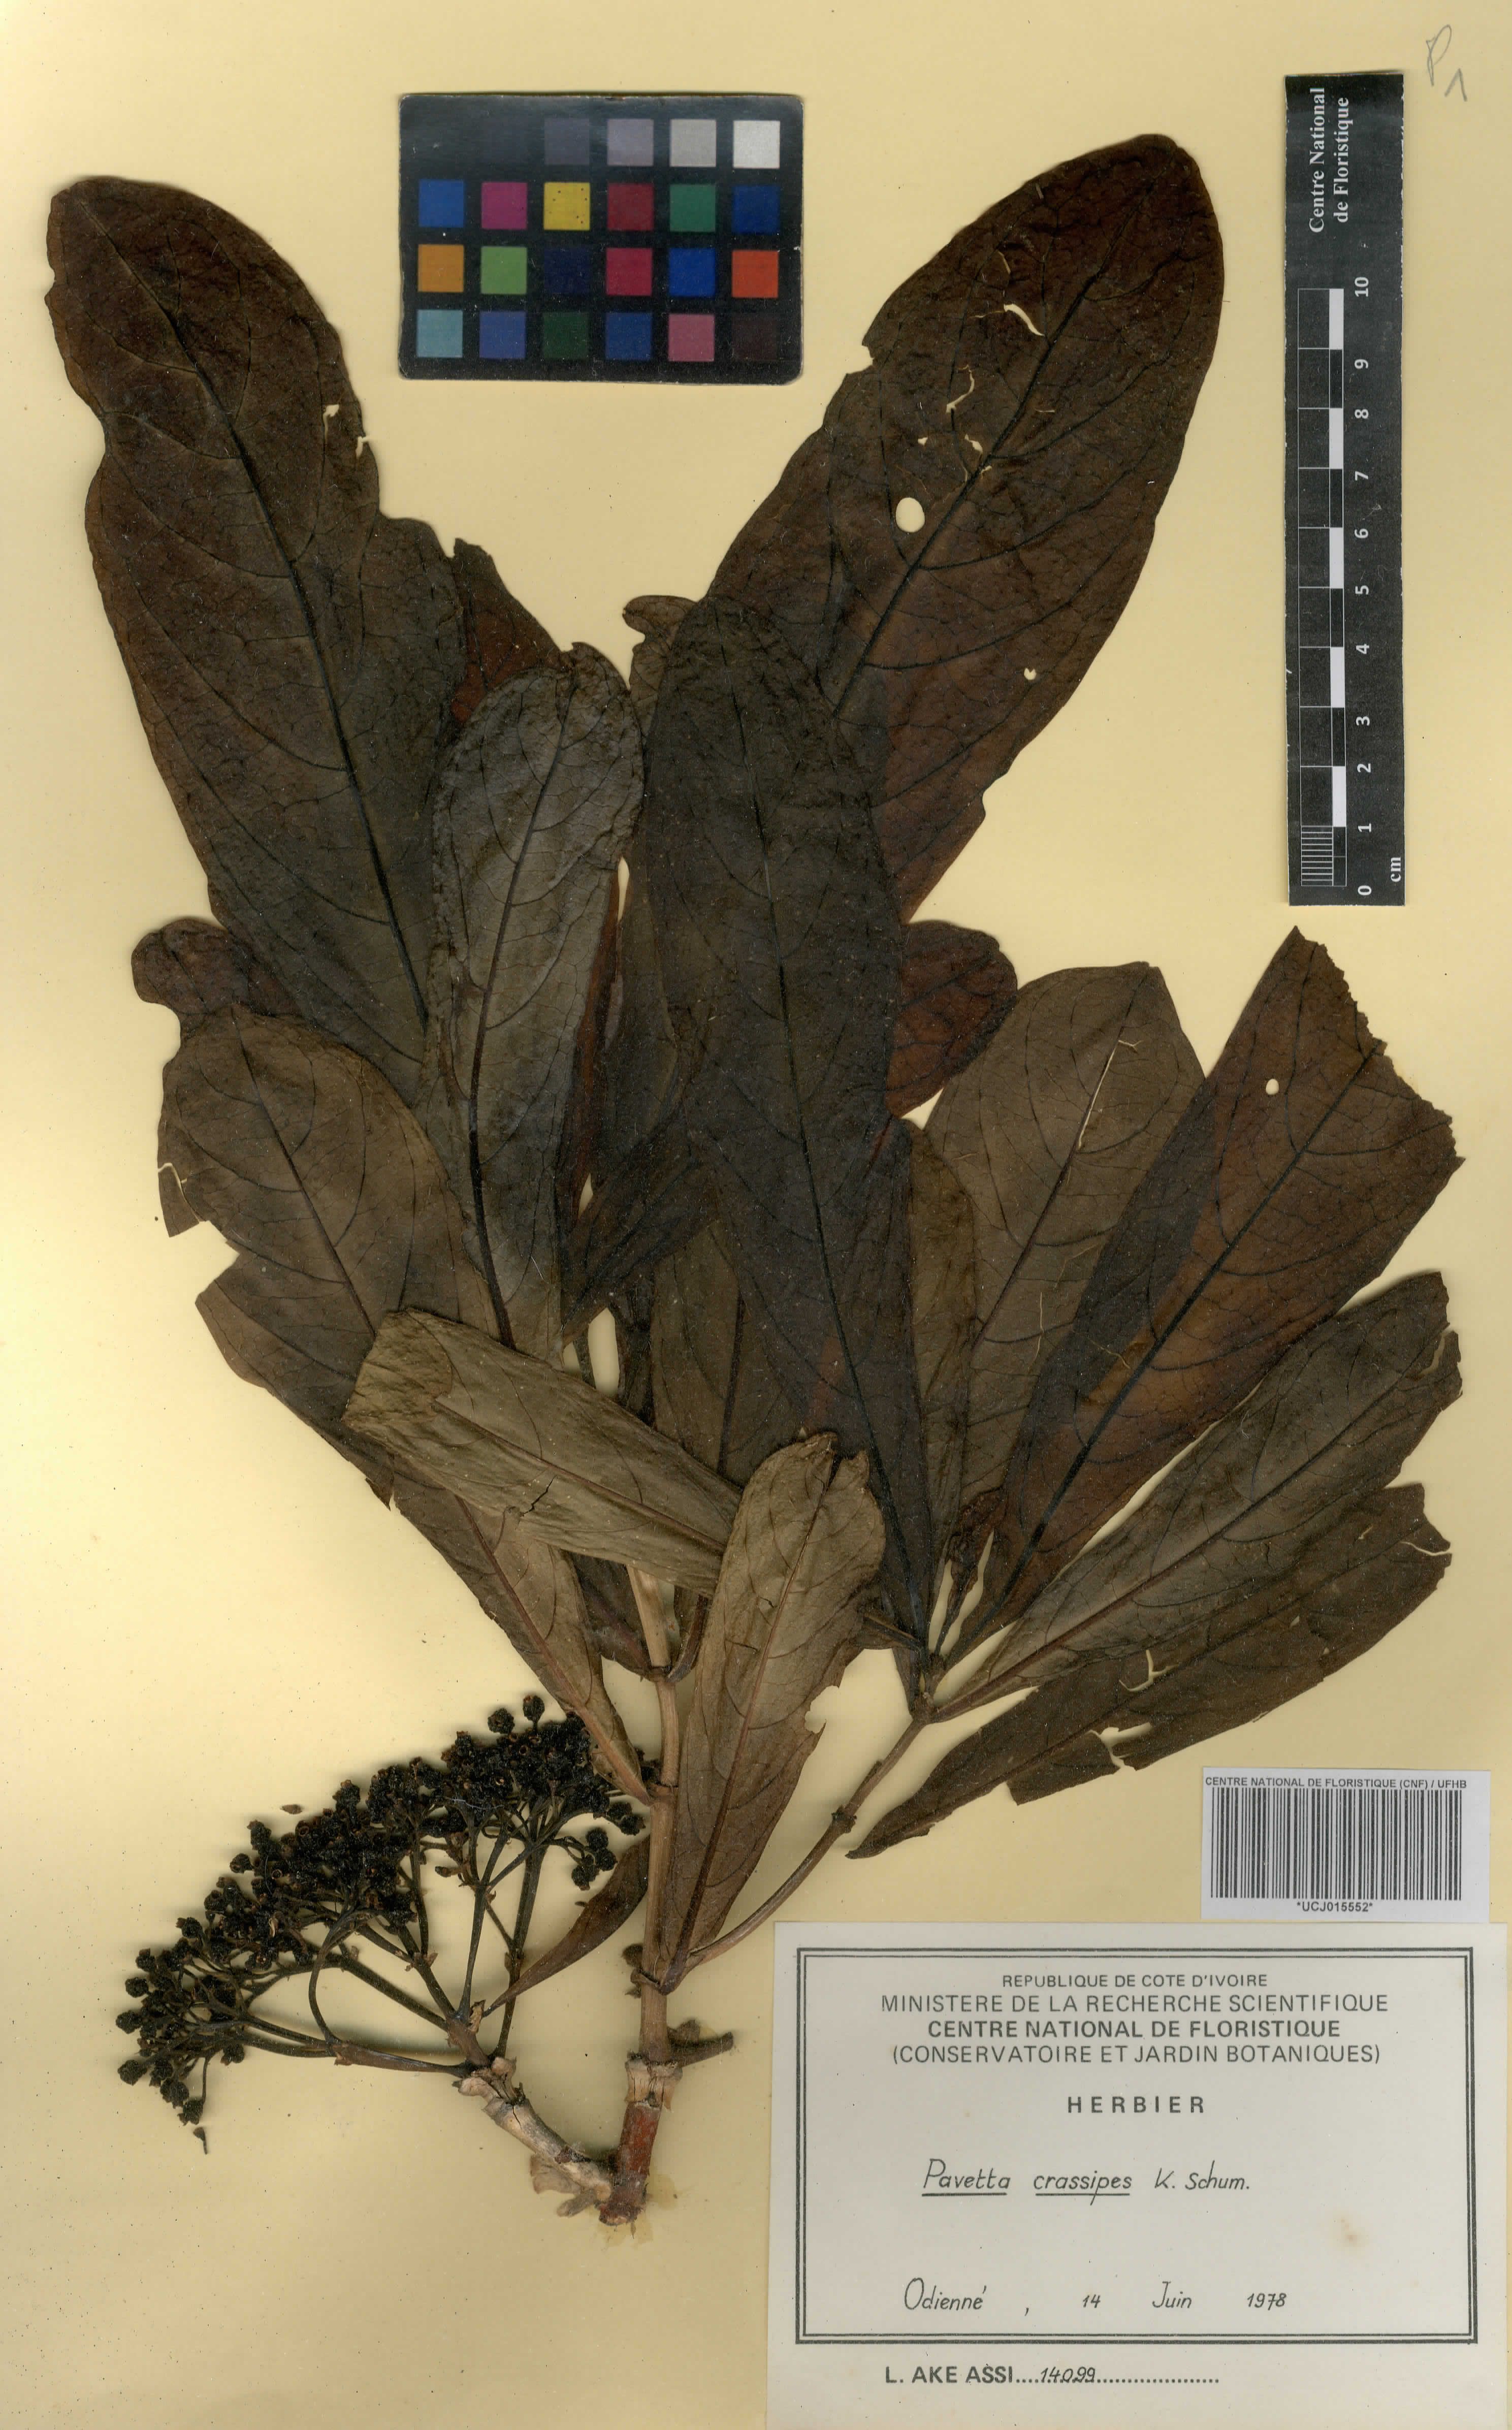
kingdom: Plantae
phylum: Tracheophyta
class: Magnoliopsida
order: Gentianales
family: Rubiaceae
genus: Pavetta
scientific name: Pavetta crassipes
